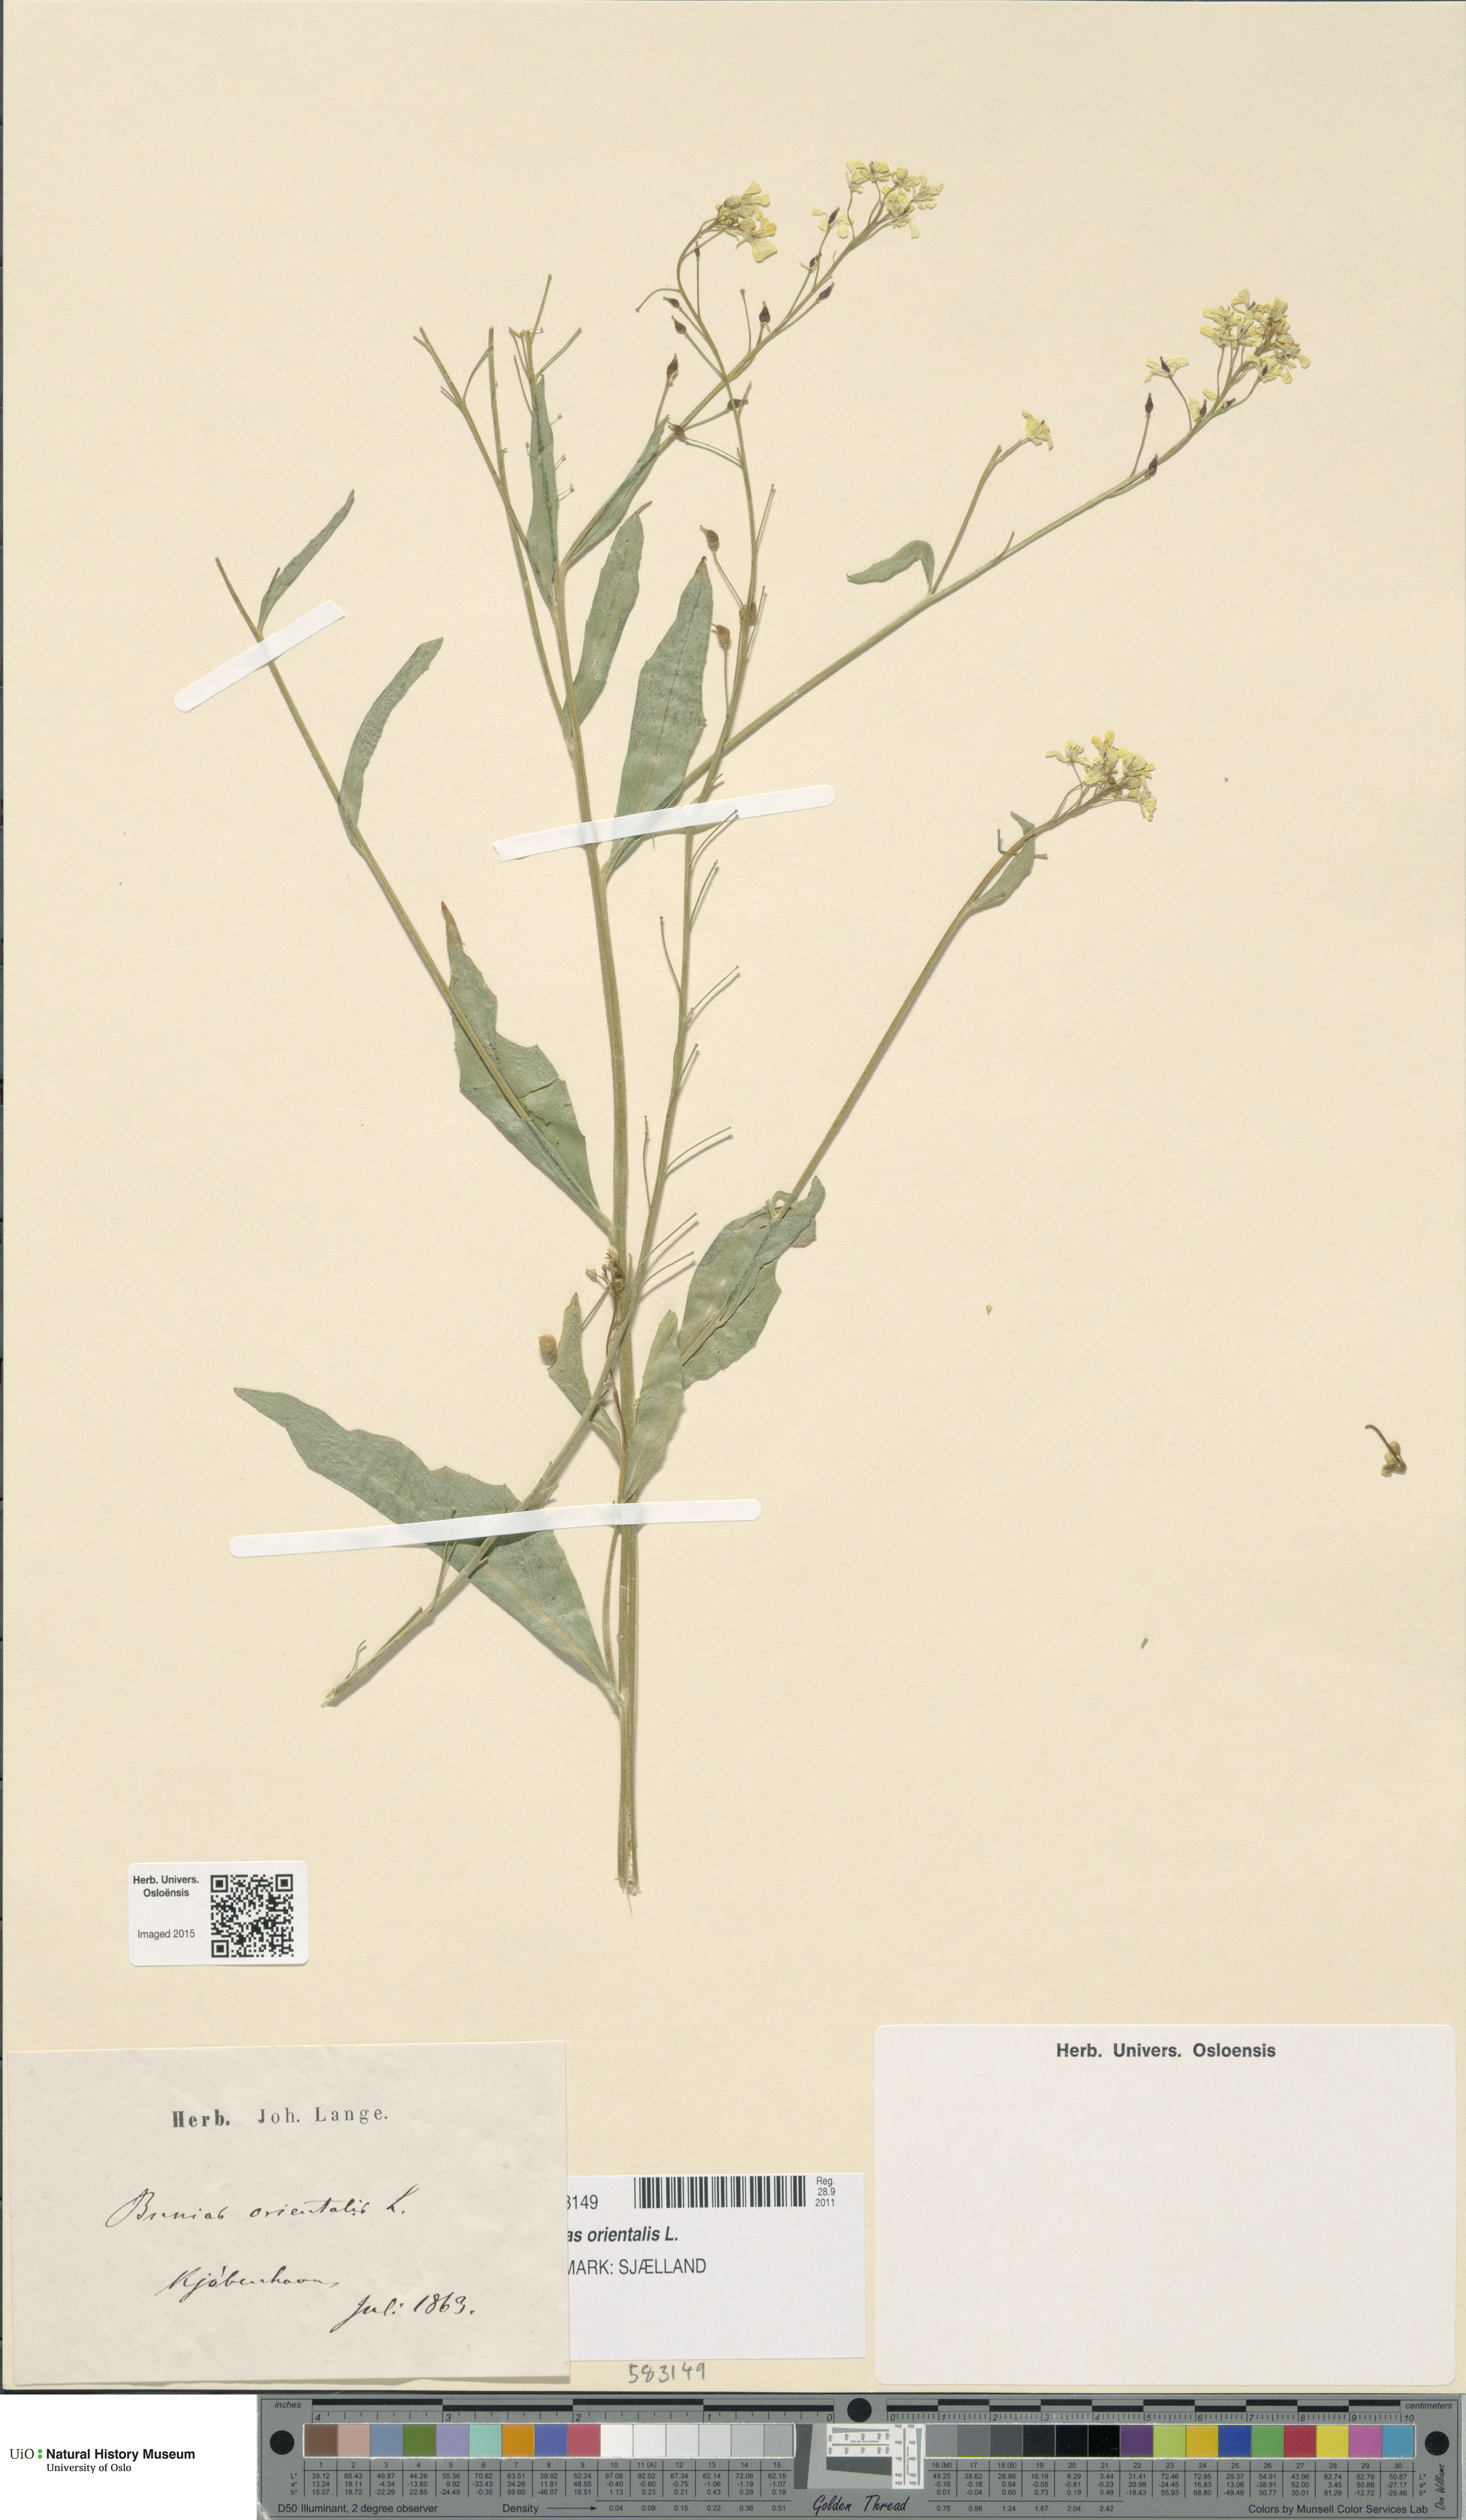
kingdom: Plantae
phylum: Tracheophyta
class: Magnoliopsida
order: Brassicales
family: Brassicaceae
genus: Bunias
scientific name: Bunias orientalis
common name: Warty-cabbage
